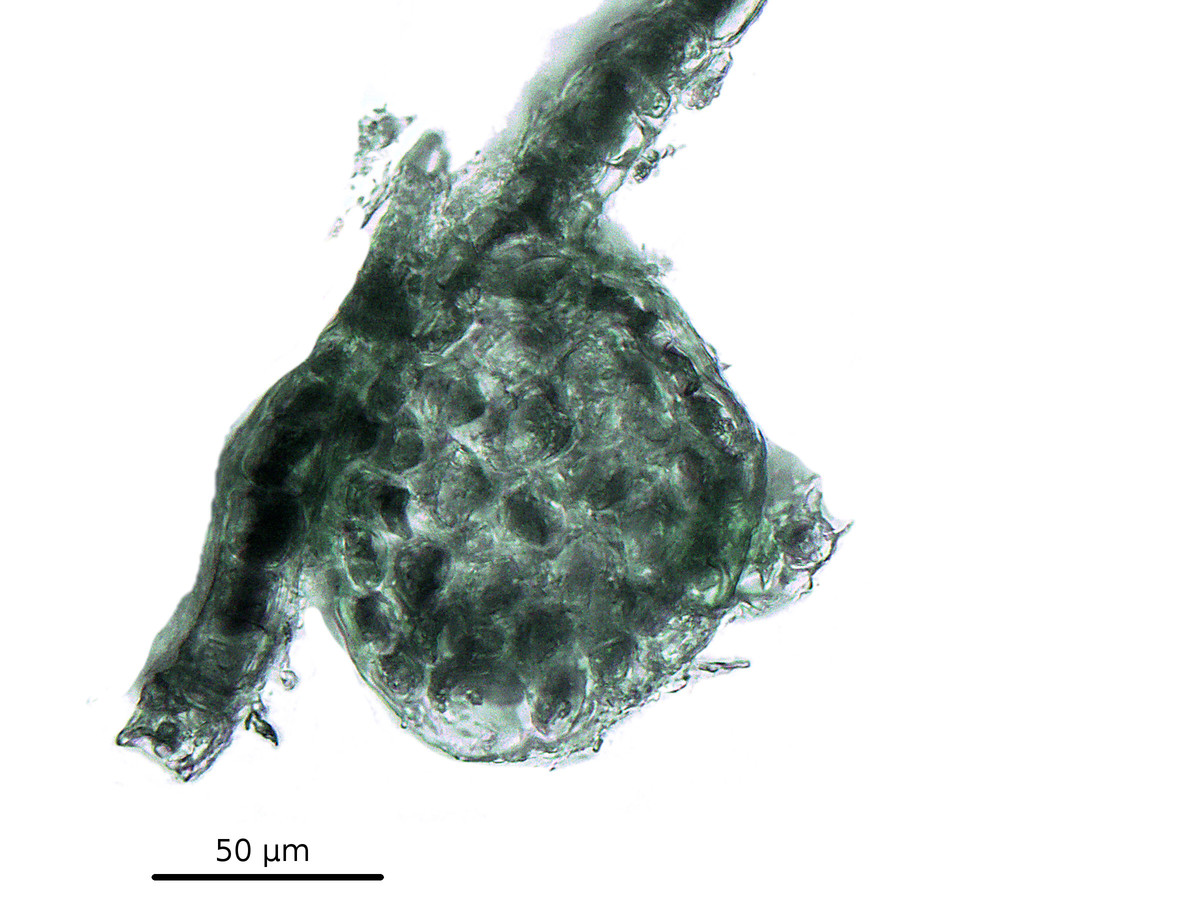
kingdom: Plantae
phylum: Marchantiophyta
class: Jungermanniopsida
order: Porellales
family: Radulaceae
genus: Radula
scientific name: Radula appressa
